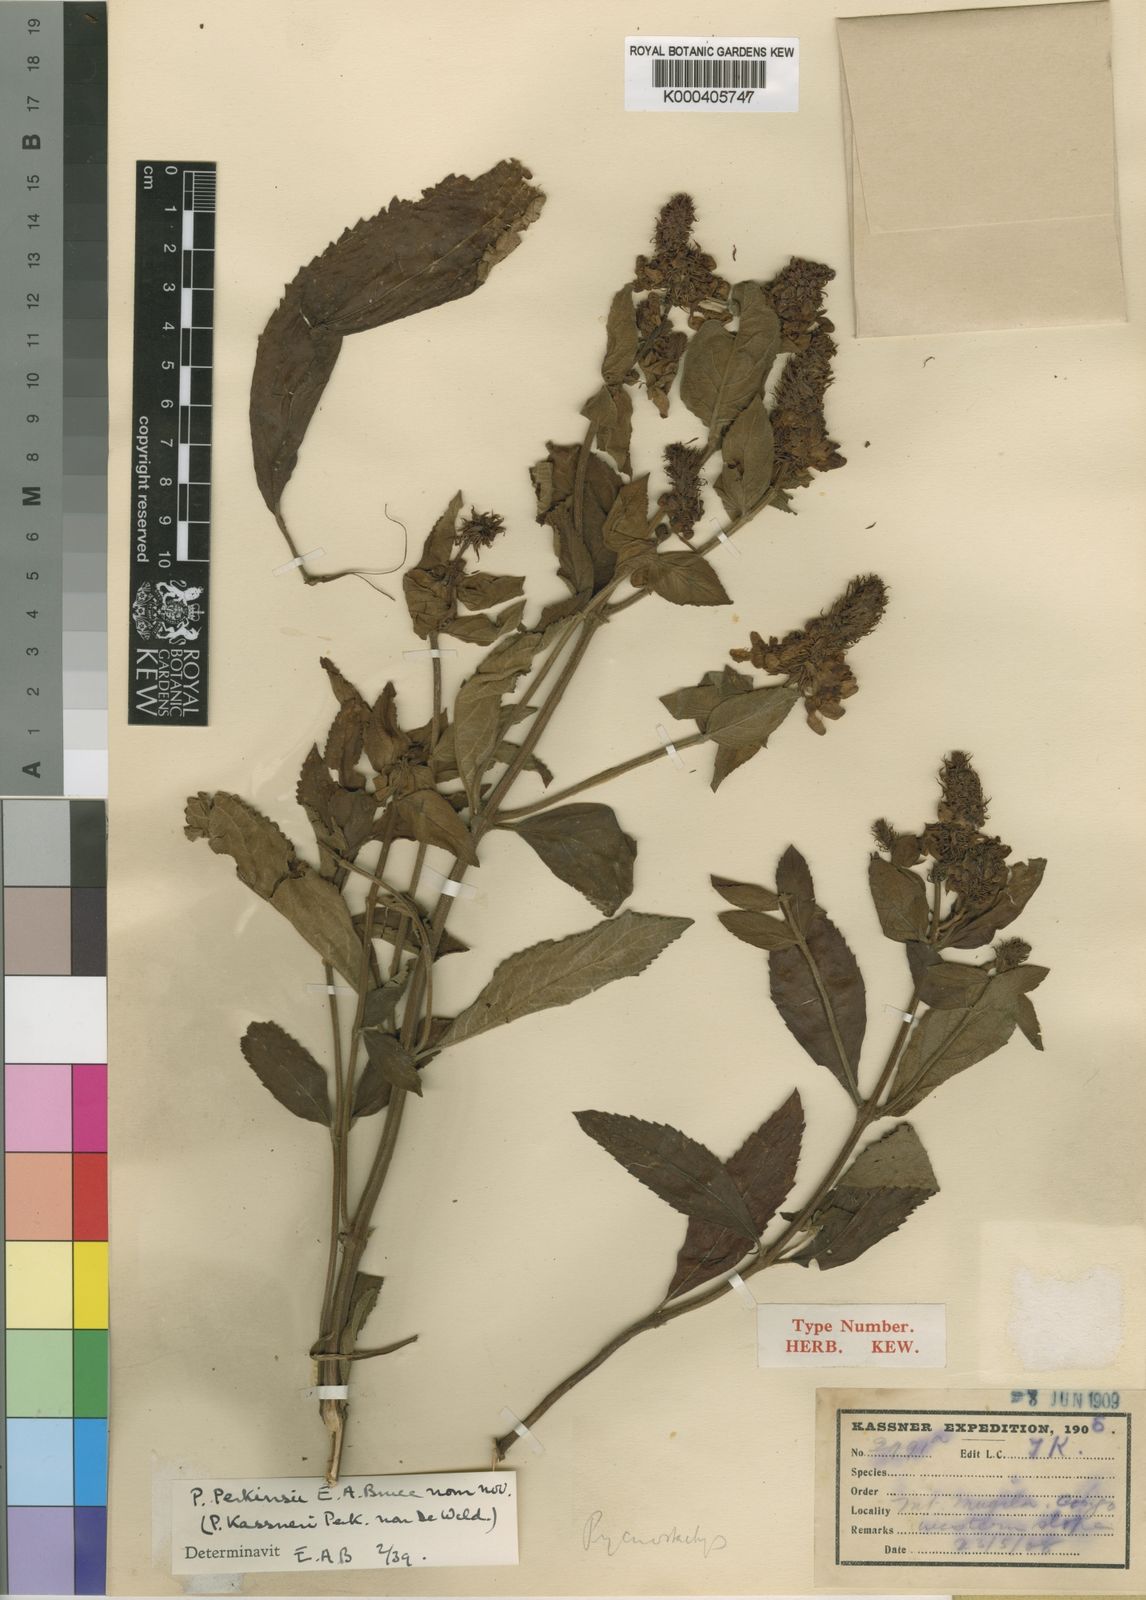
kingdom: Plantae
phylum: Tracheophyta
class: Magnoliopsida
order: Lamiales
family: Lamiaceae
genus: Coleus
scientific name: Coleus sphaerocephalus
